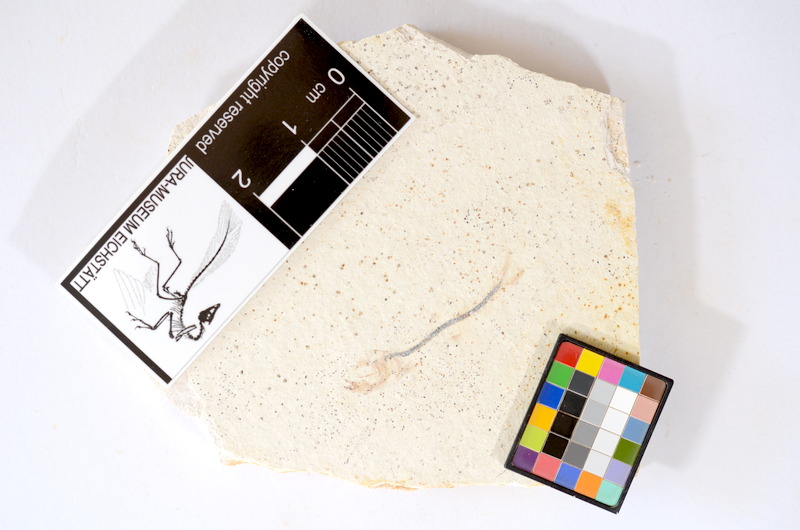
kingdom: Animalia
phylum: Chordata
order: Salmoniformes
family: Orthogonikleithridae
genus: Orthogonikleithrus
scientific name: Orthogonikleithrus hoelli
